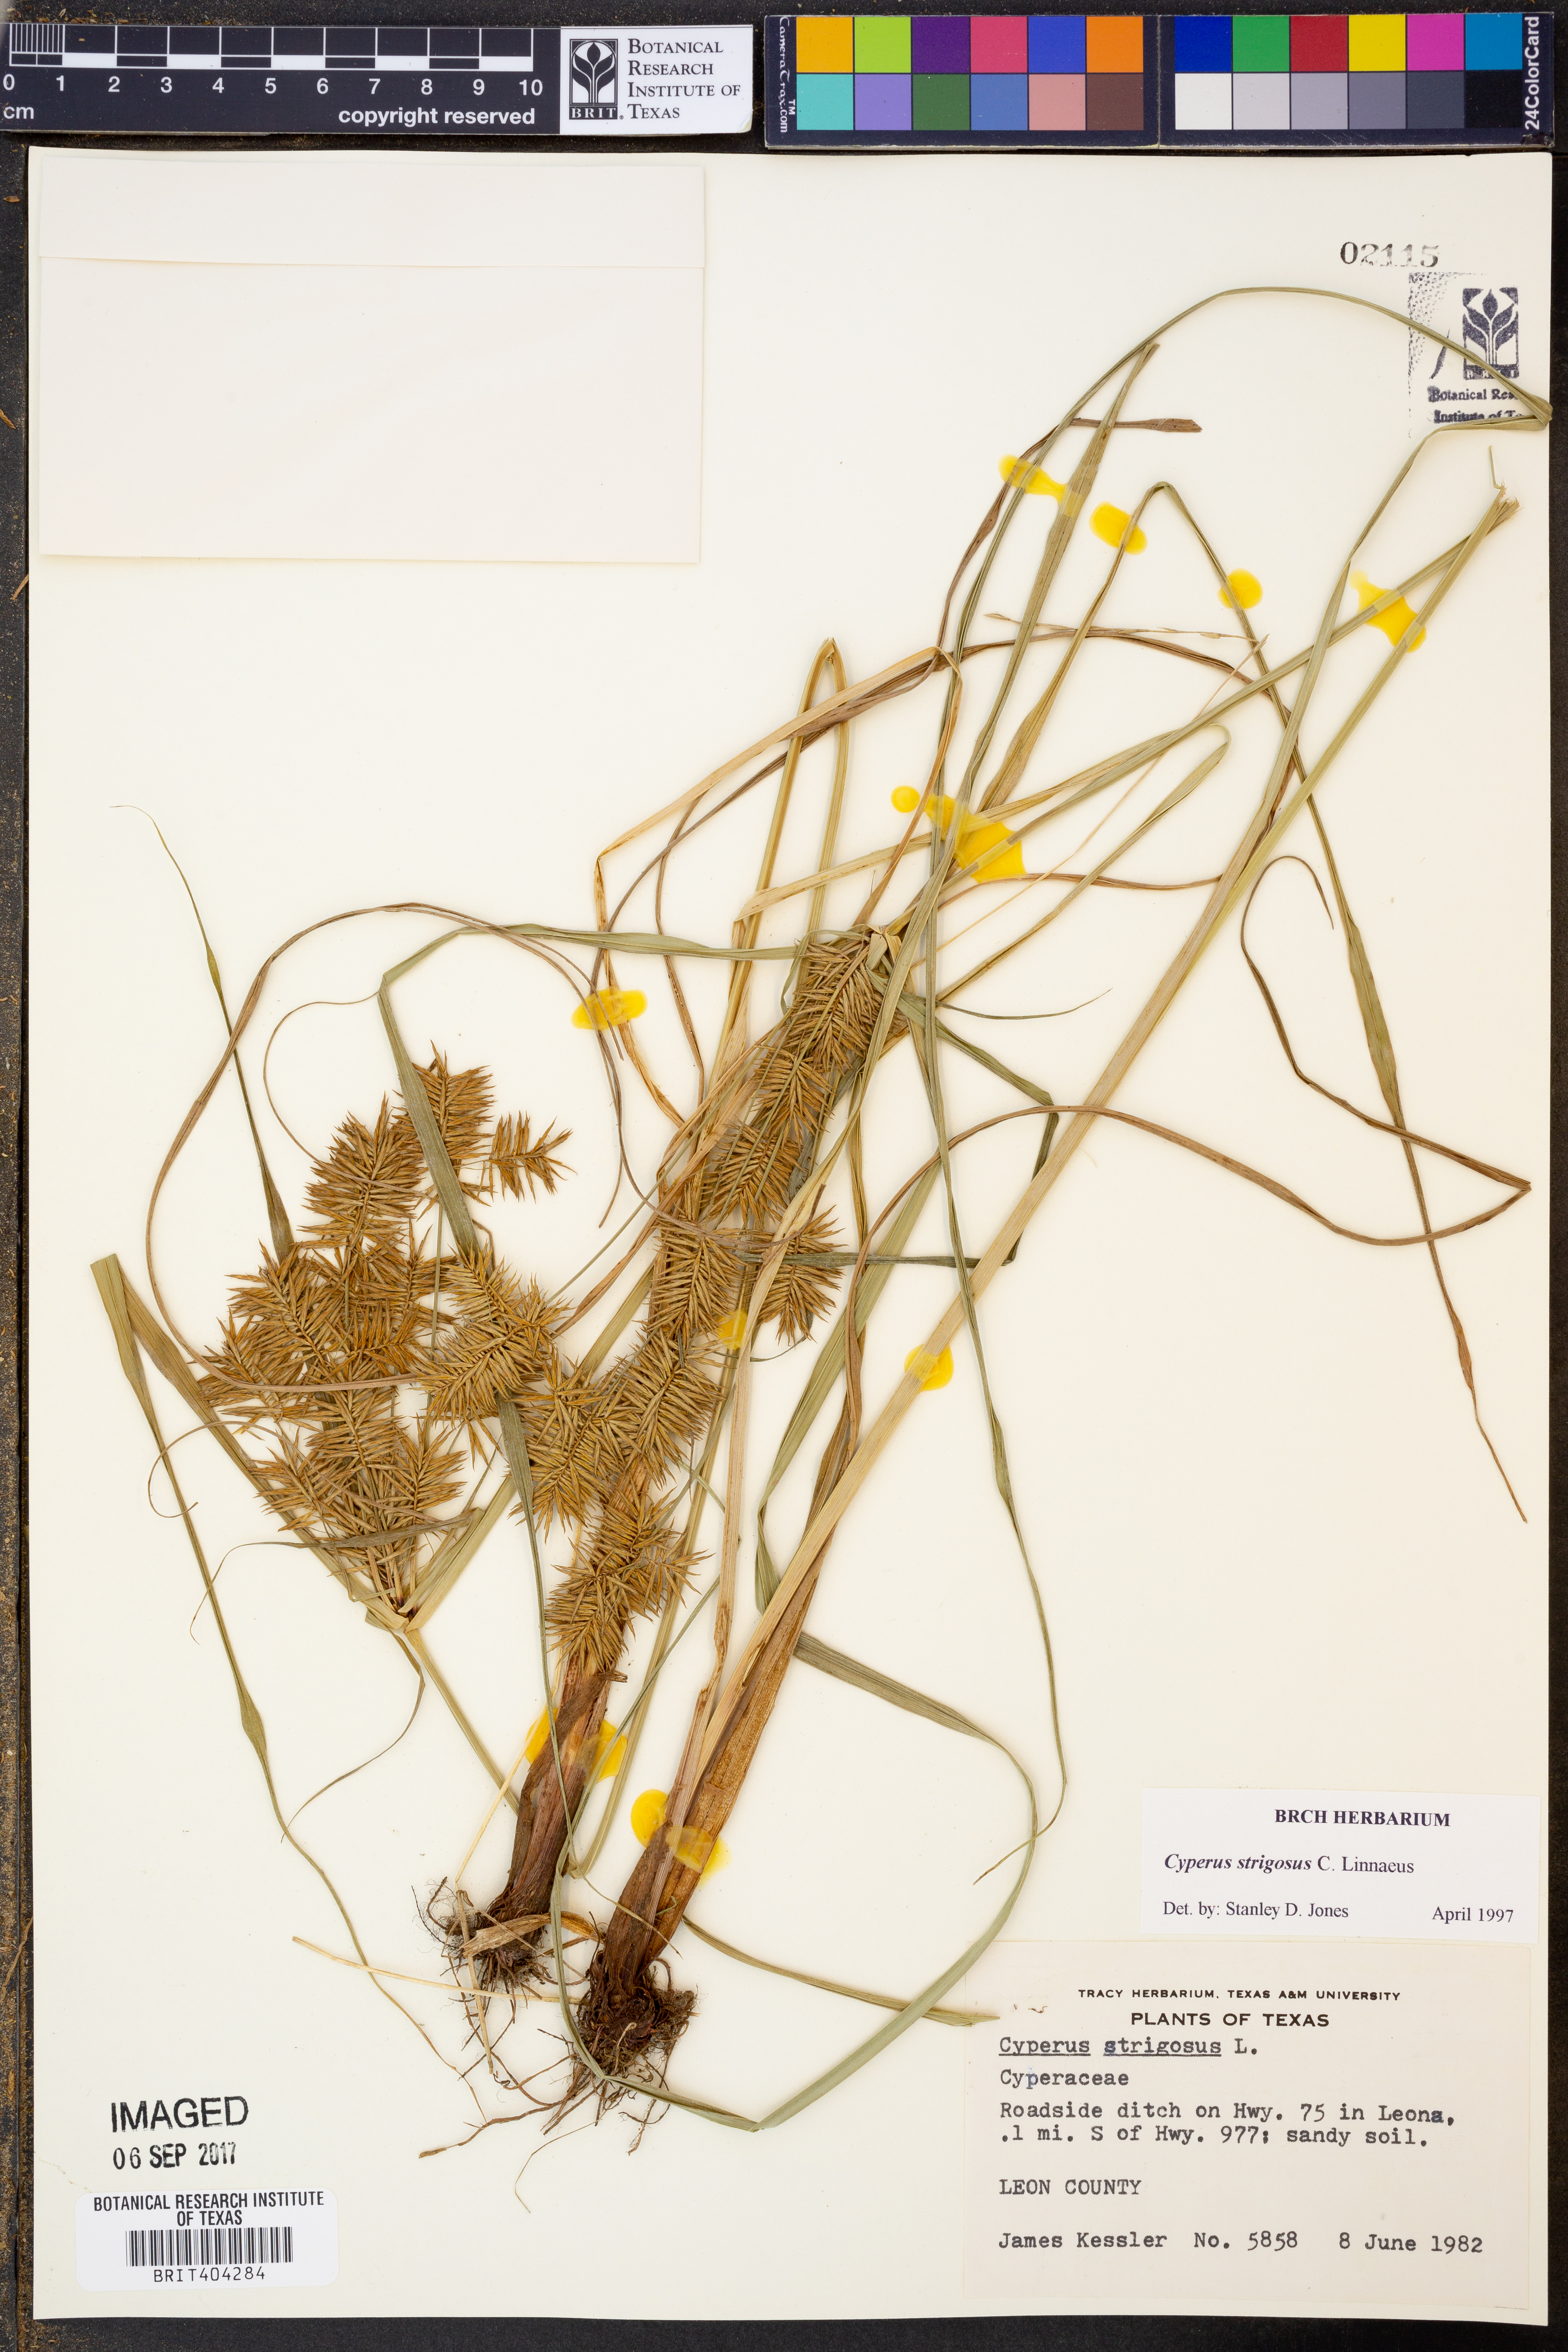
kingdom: Plantae
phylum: Tracheophyta
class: Liliopsida
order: Poales
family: Cyperaceae
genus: Cyperus
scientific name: Cyperus strigosus
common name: False nutsedge
